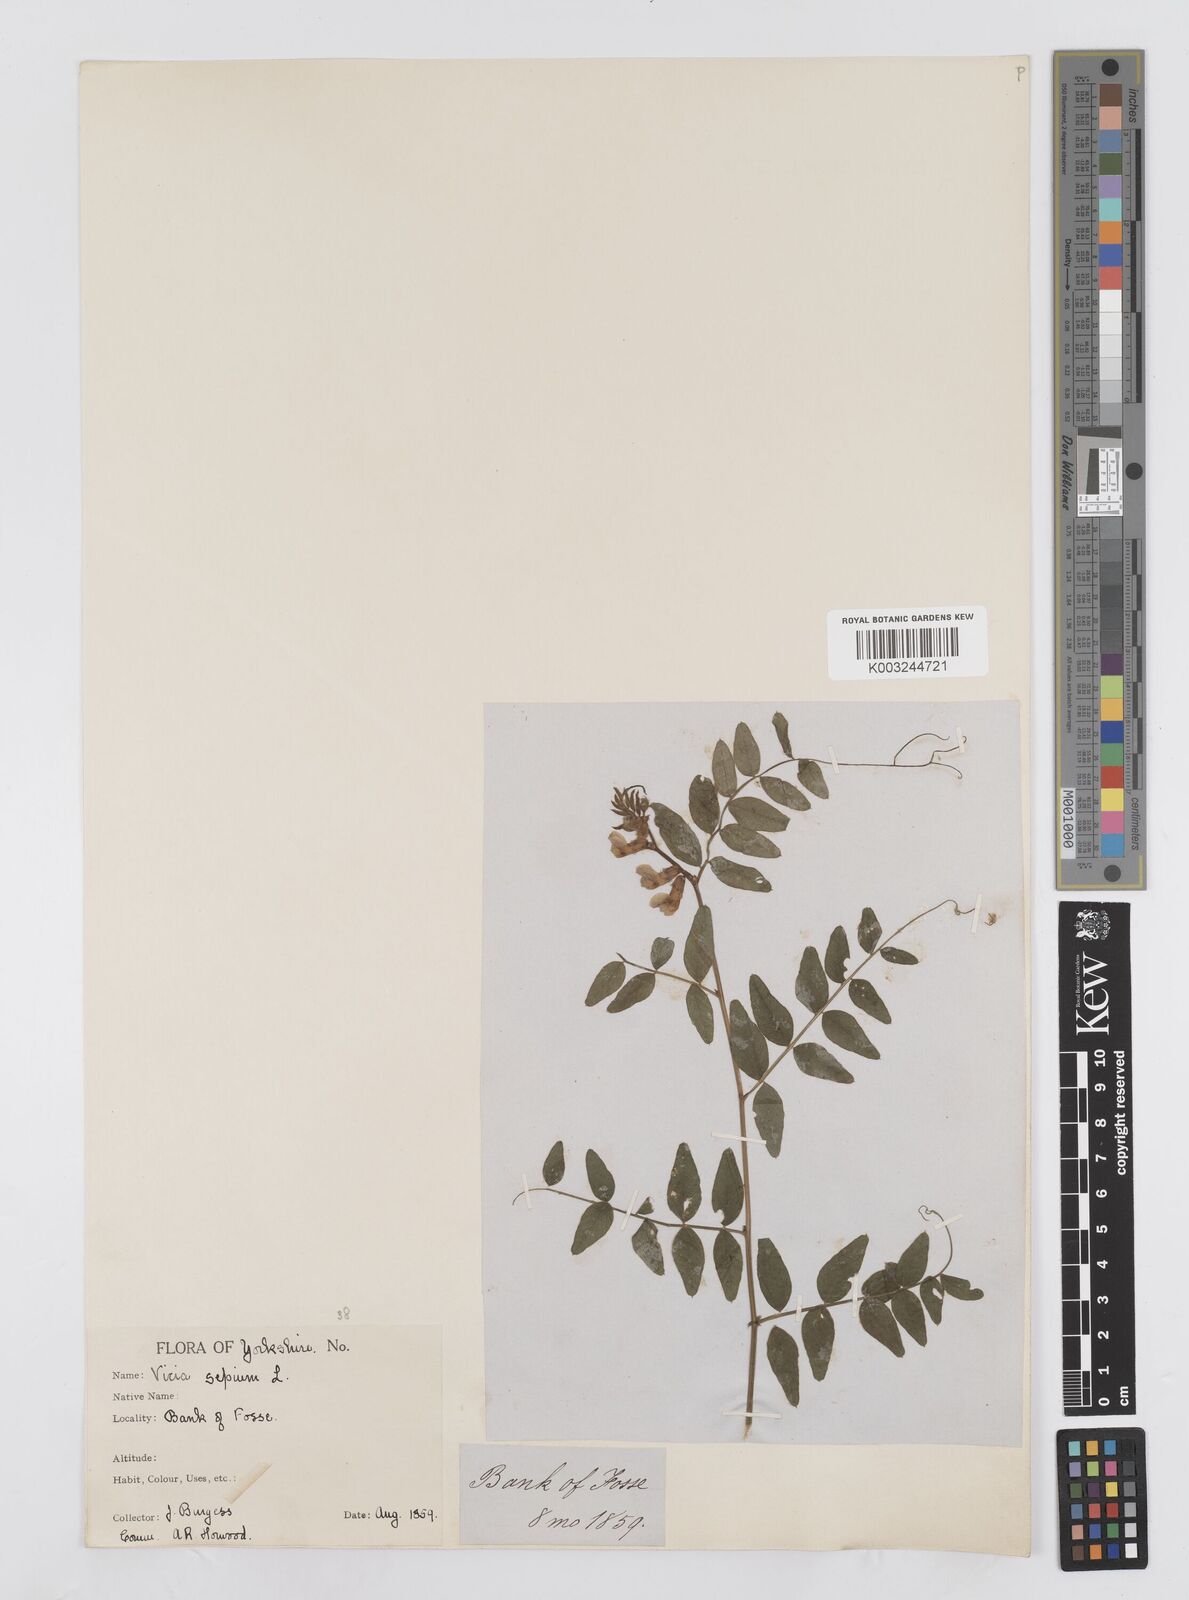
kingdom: Plantae
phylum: Tracheophyta
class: Magnoliopsida
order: Fabales
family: Fabaceae
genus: Vicia
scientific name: Vicia sepium
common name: Bush vetch
